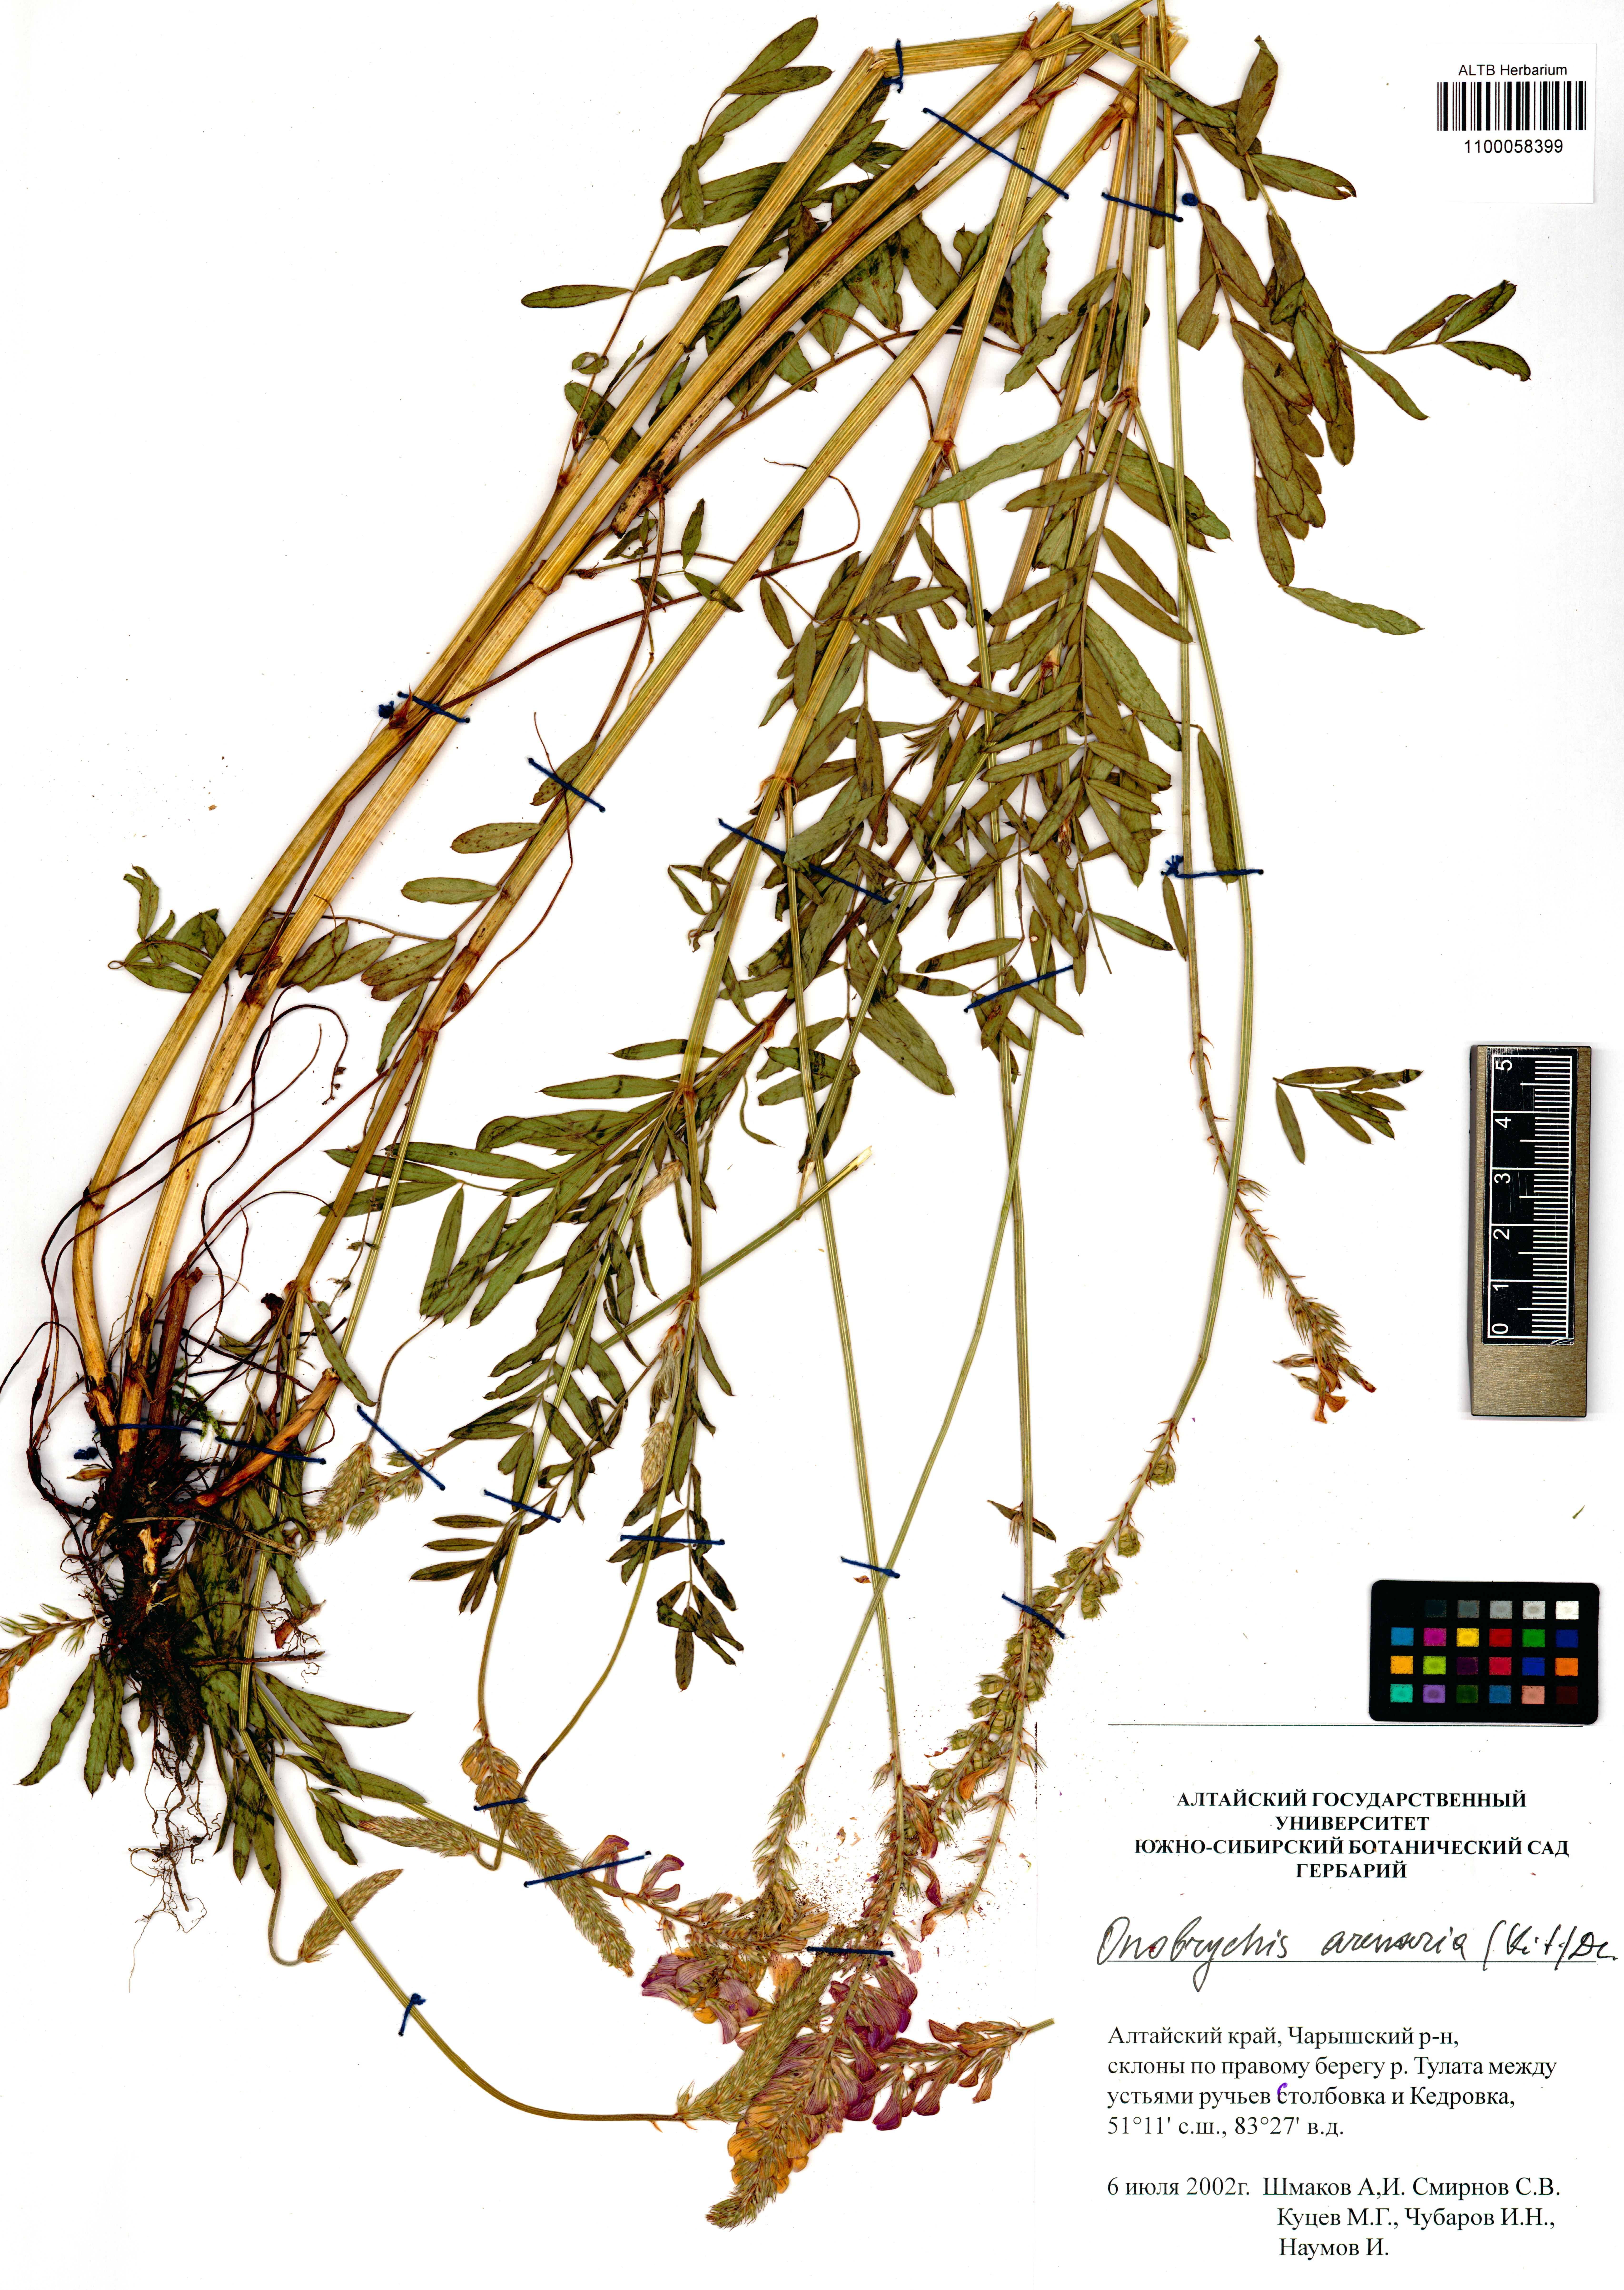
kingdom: Plantae
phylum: Tracheophyta
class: Magnoliopsida
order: Fabales
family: Fabaceae
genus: Onobrychis
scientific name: Onobrychis arenaria
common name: Sand esparcet
